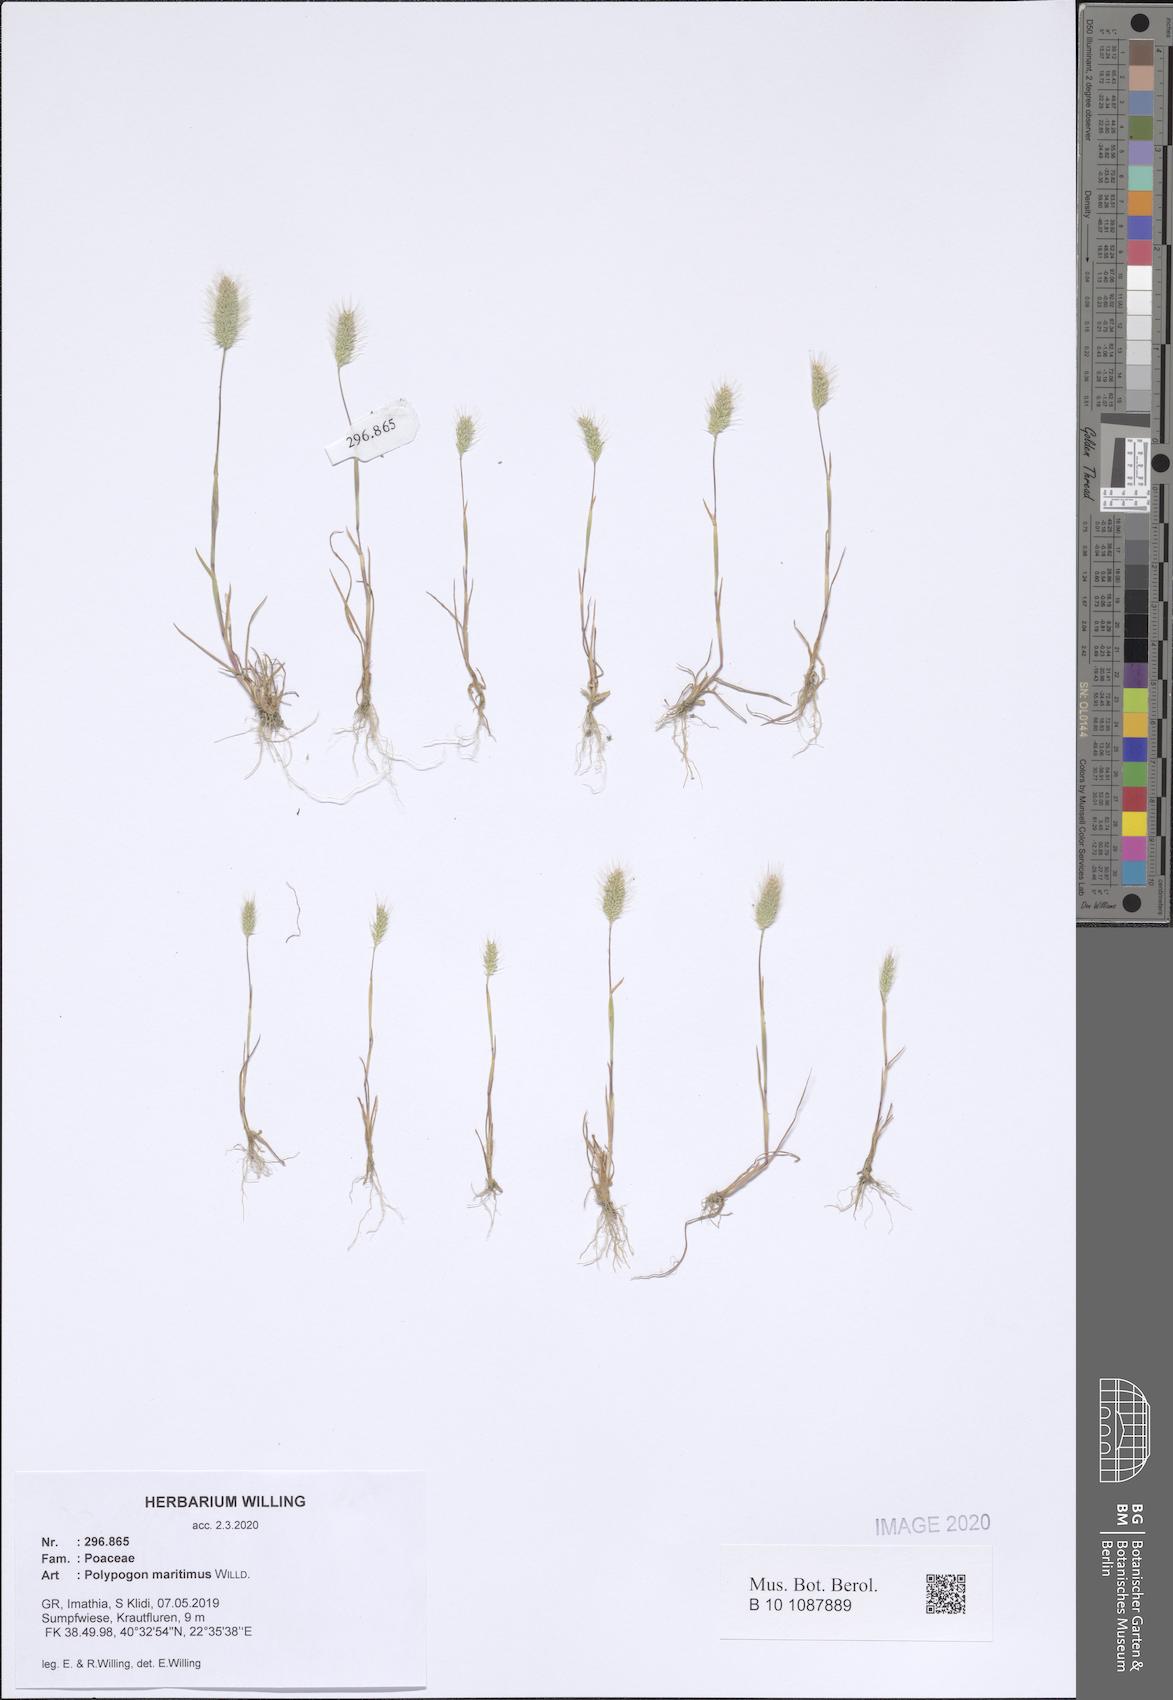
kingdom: Plantae
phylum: Tracheophyta
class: Liliopsida
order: Poales
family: Poaceae
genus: Polypogon
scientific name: Polypogon maritimus
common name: Mediterranean rabbitsfoot grass
